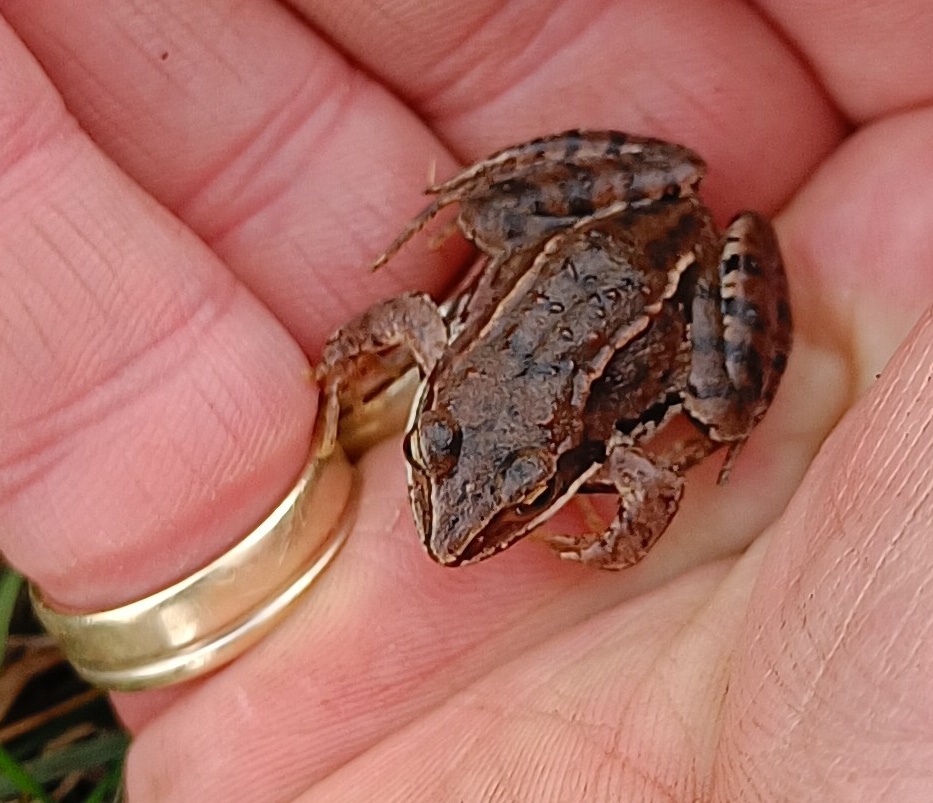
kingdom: Animalia
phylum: Chordata
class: Amphibia
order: Anura
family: Ranidae
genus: Rana
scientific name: Rana arvalis
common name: Spidssnudet frø
